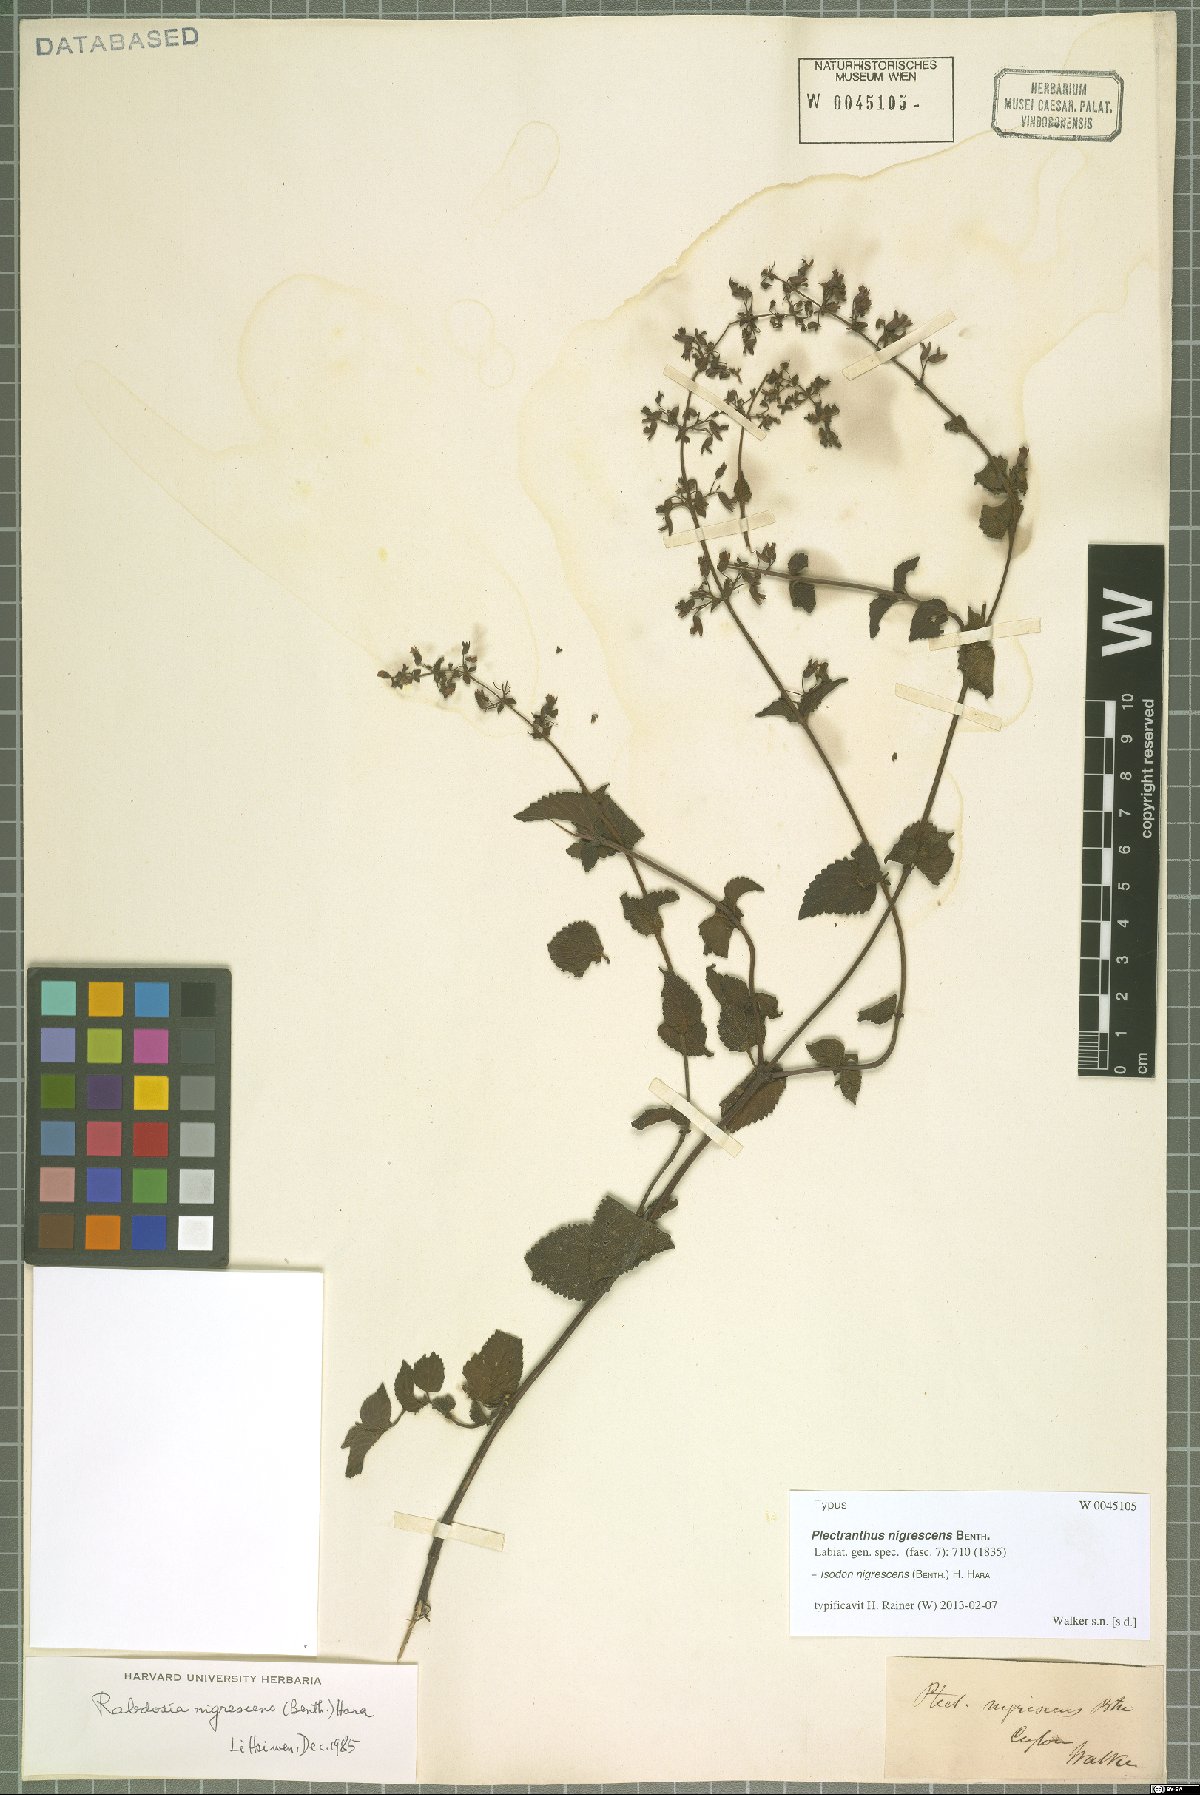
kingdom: Plantae
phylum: Tracheophyta
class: Magnoliopsida
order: Lamiales
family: Lamiaceae
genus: Isodon
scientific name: Isodon nigrescens
